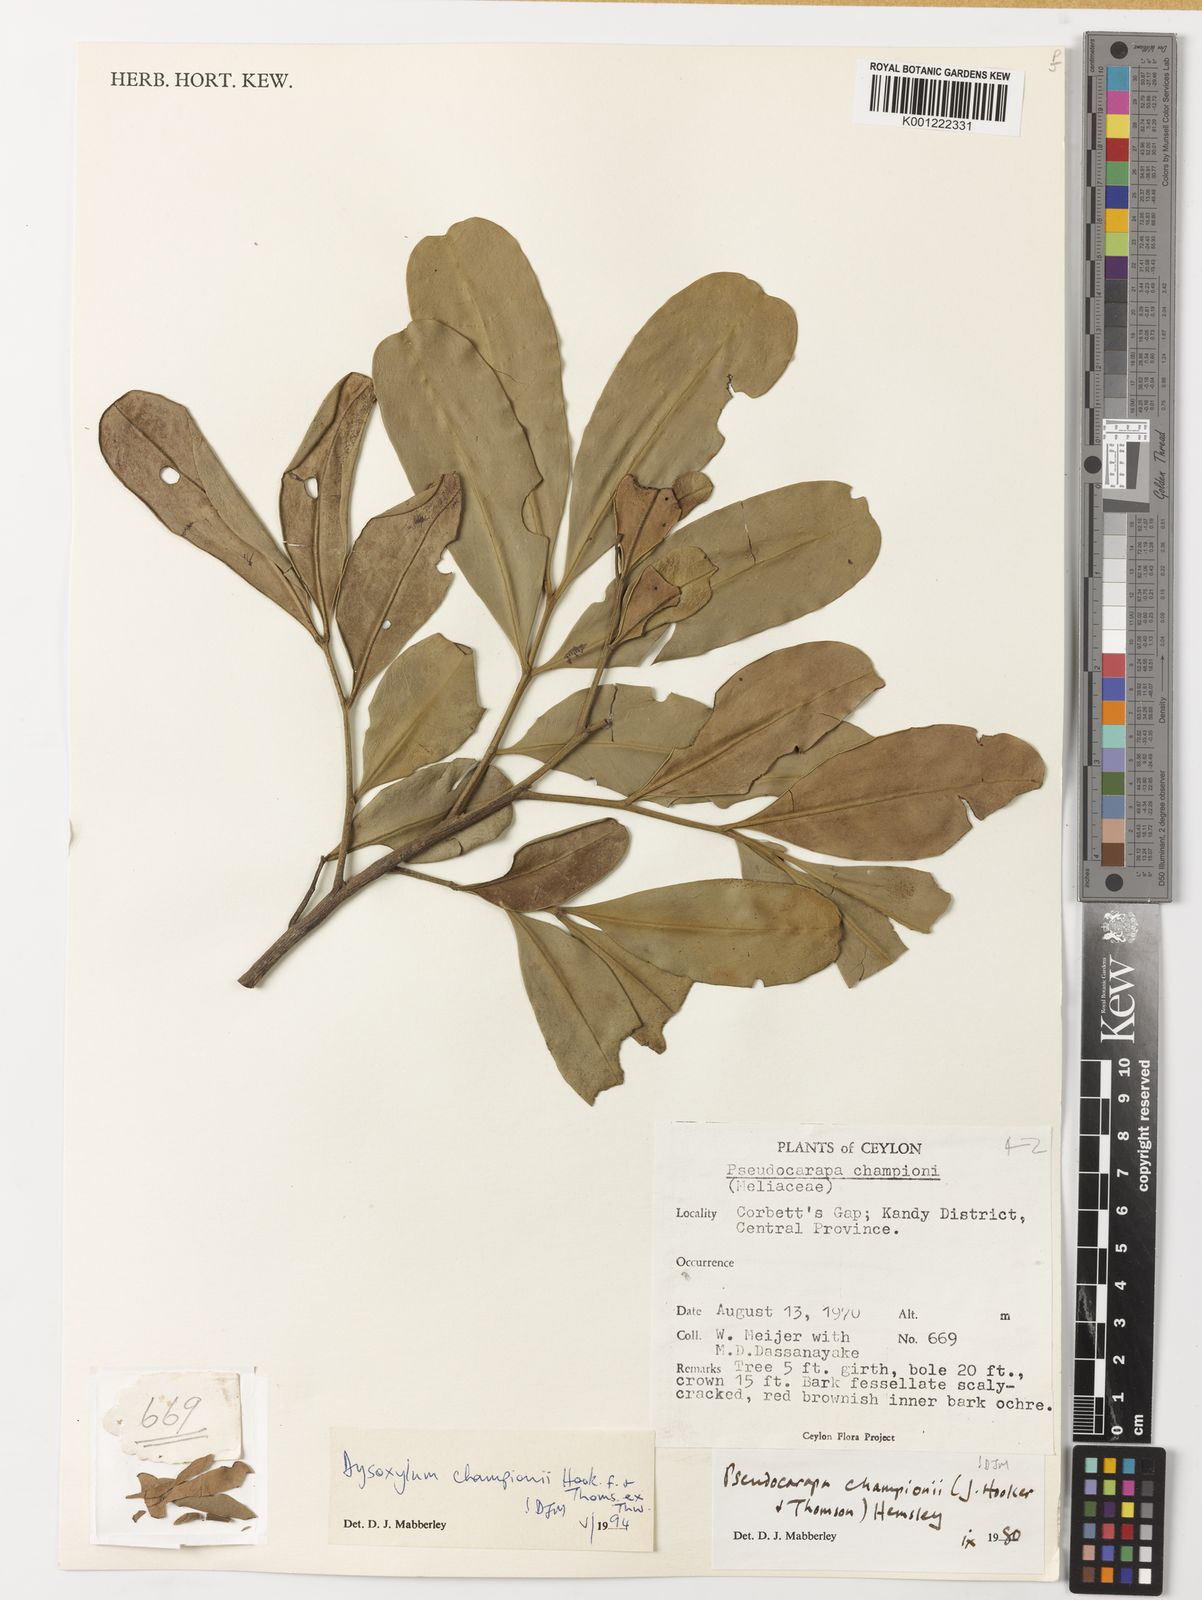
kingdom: Plantae
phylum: Tracheophyta
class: Magnoliopsida
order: Sapindales
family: Meliaceae
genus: Pseudocarapa
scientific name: Pseudocarapa championii
